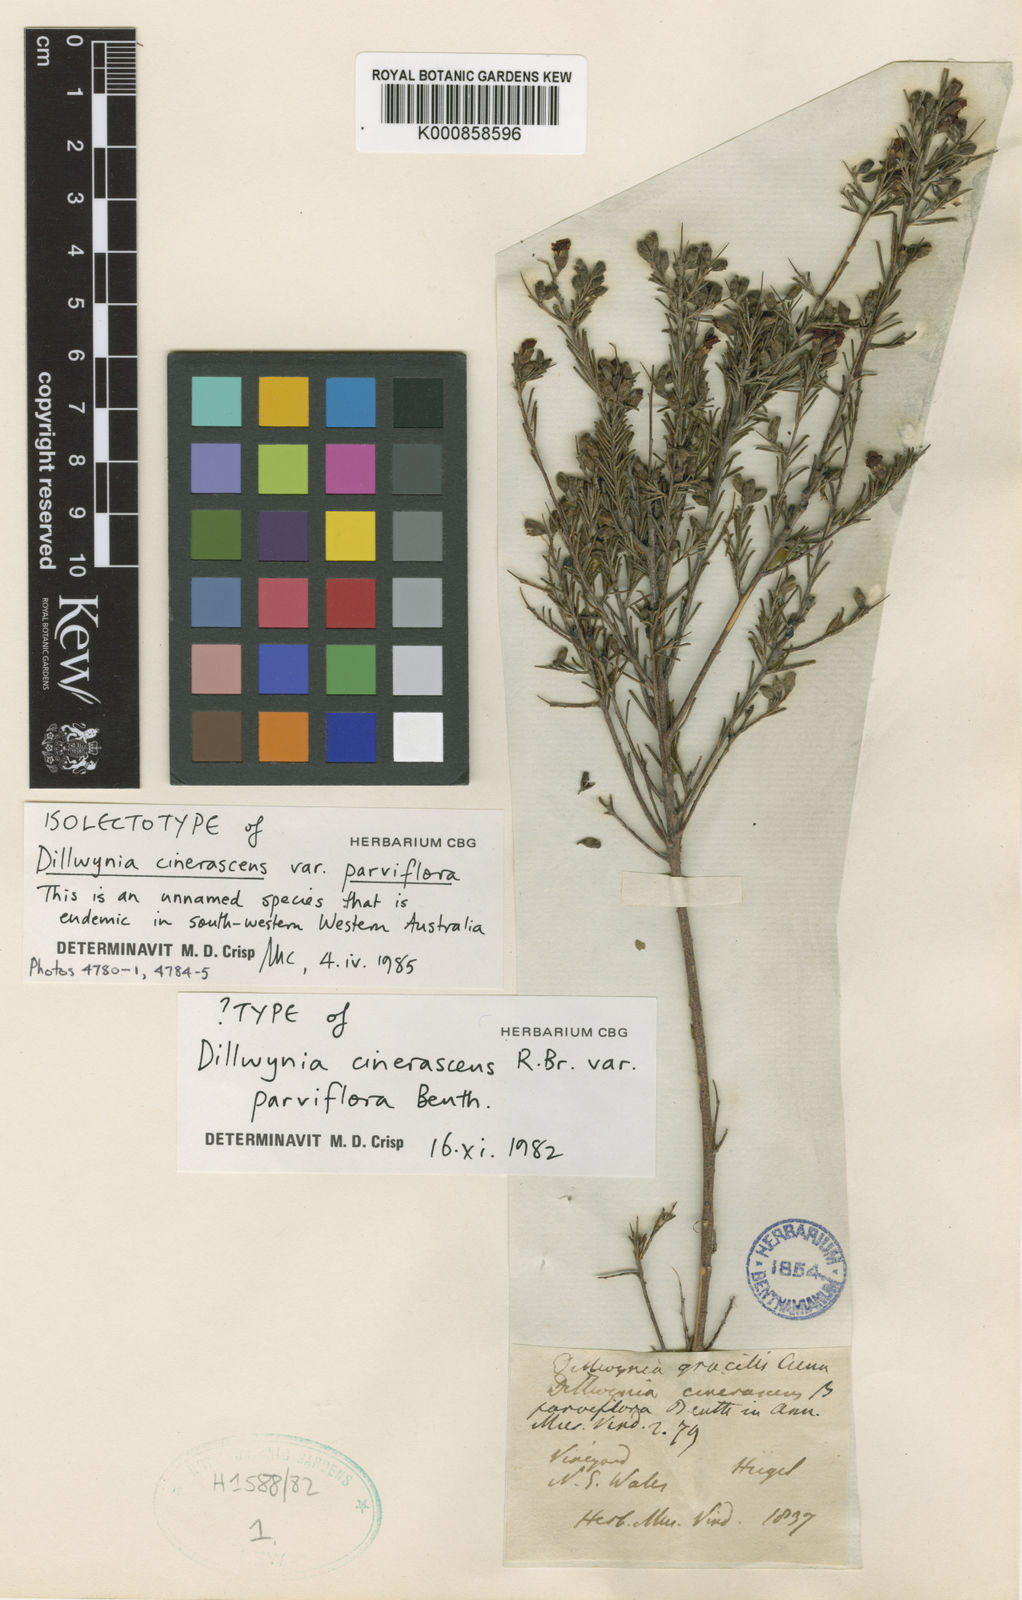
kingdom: Plantae
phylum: Tracheophyta
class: Magnoliopsida
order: Fabales
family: Fabaceae
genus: Dillwynia
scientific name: Dillwynia cinerascens
